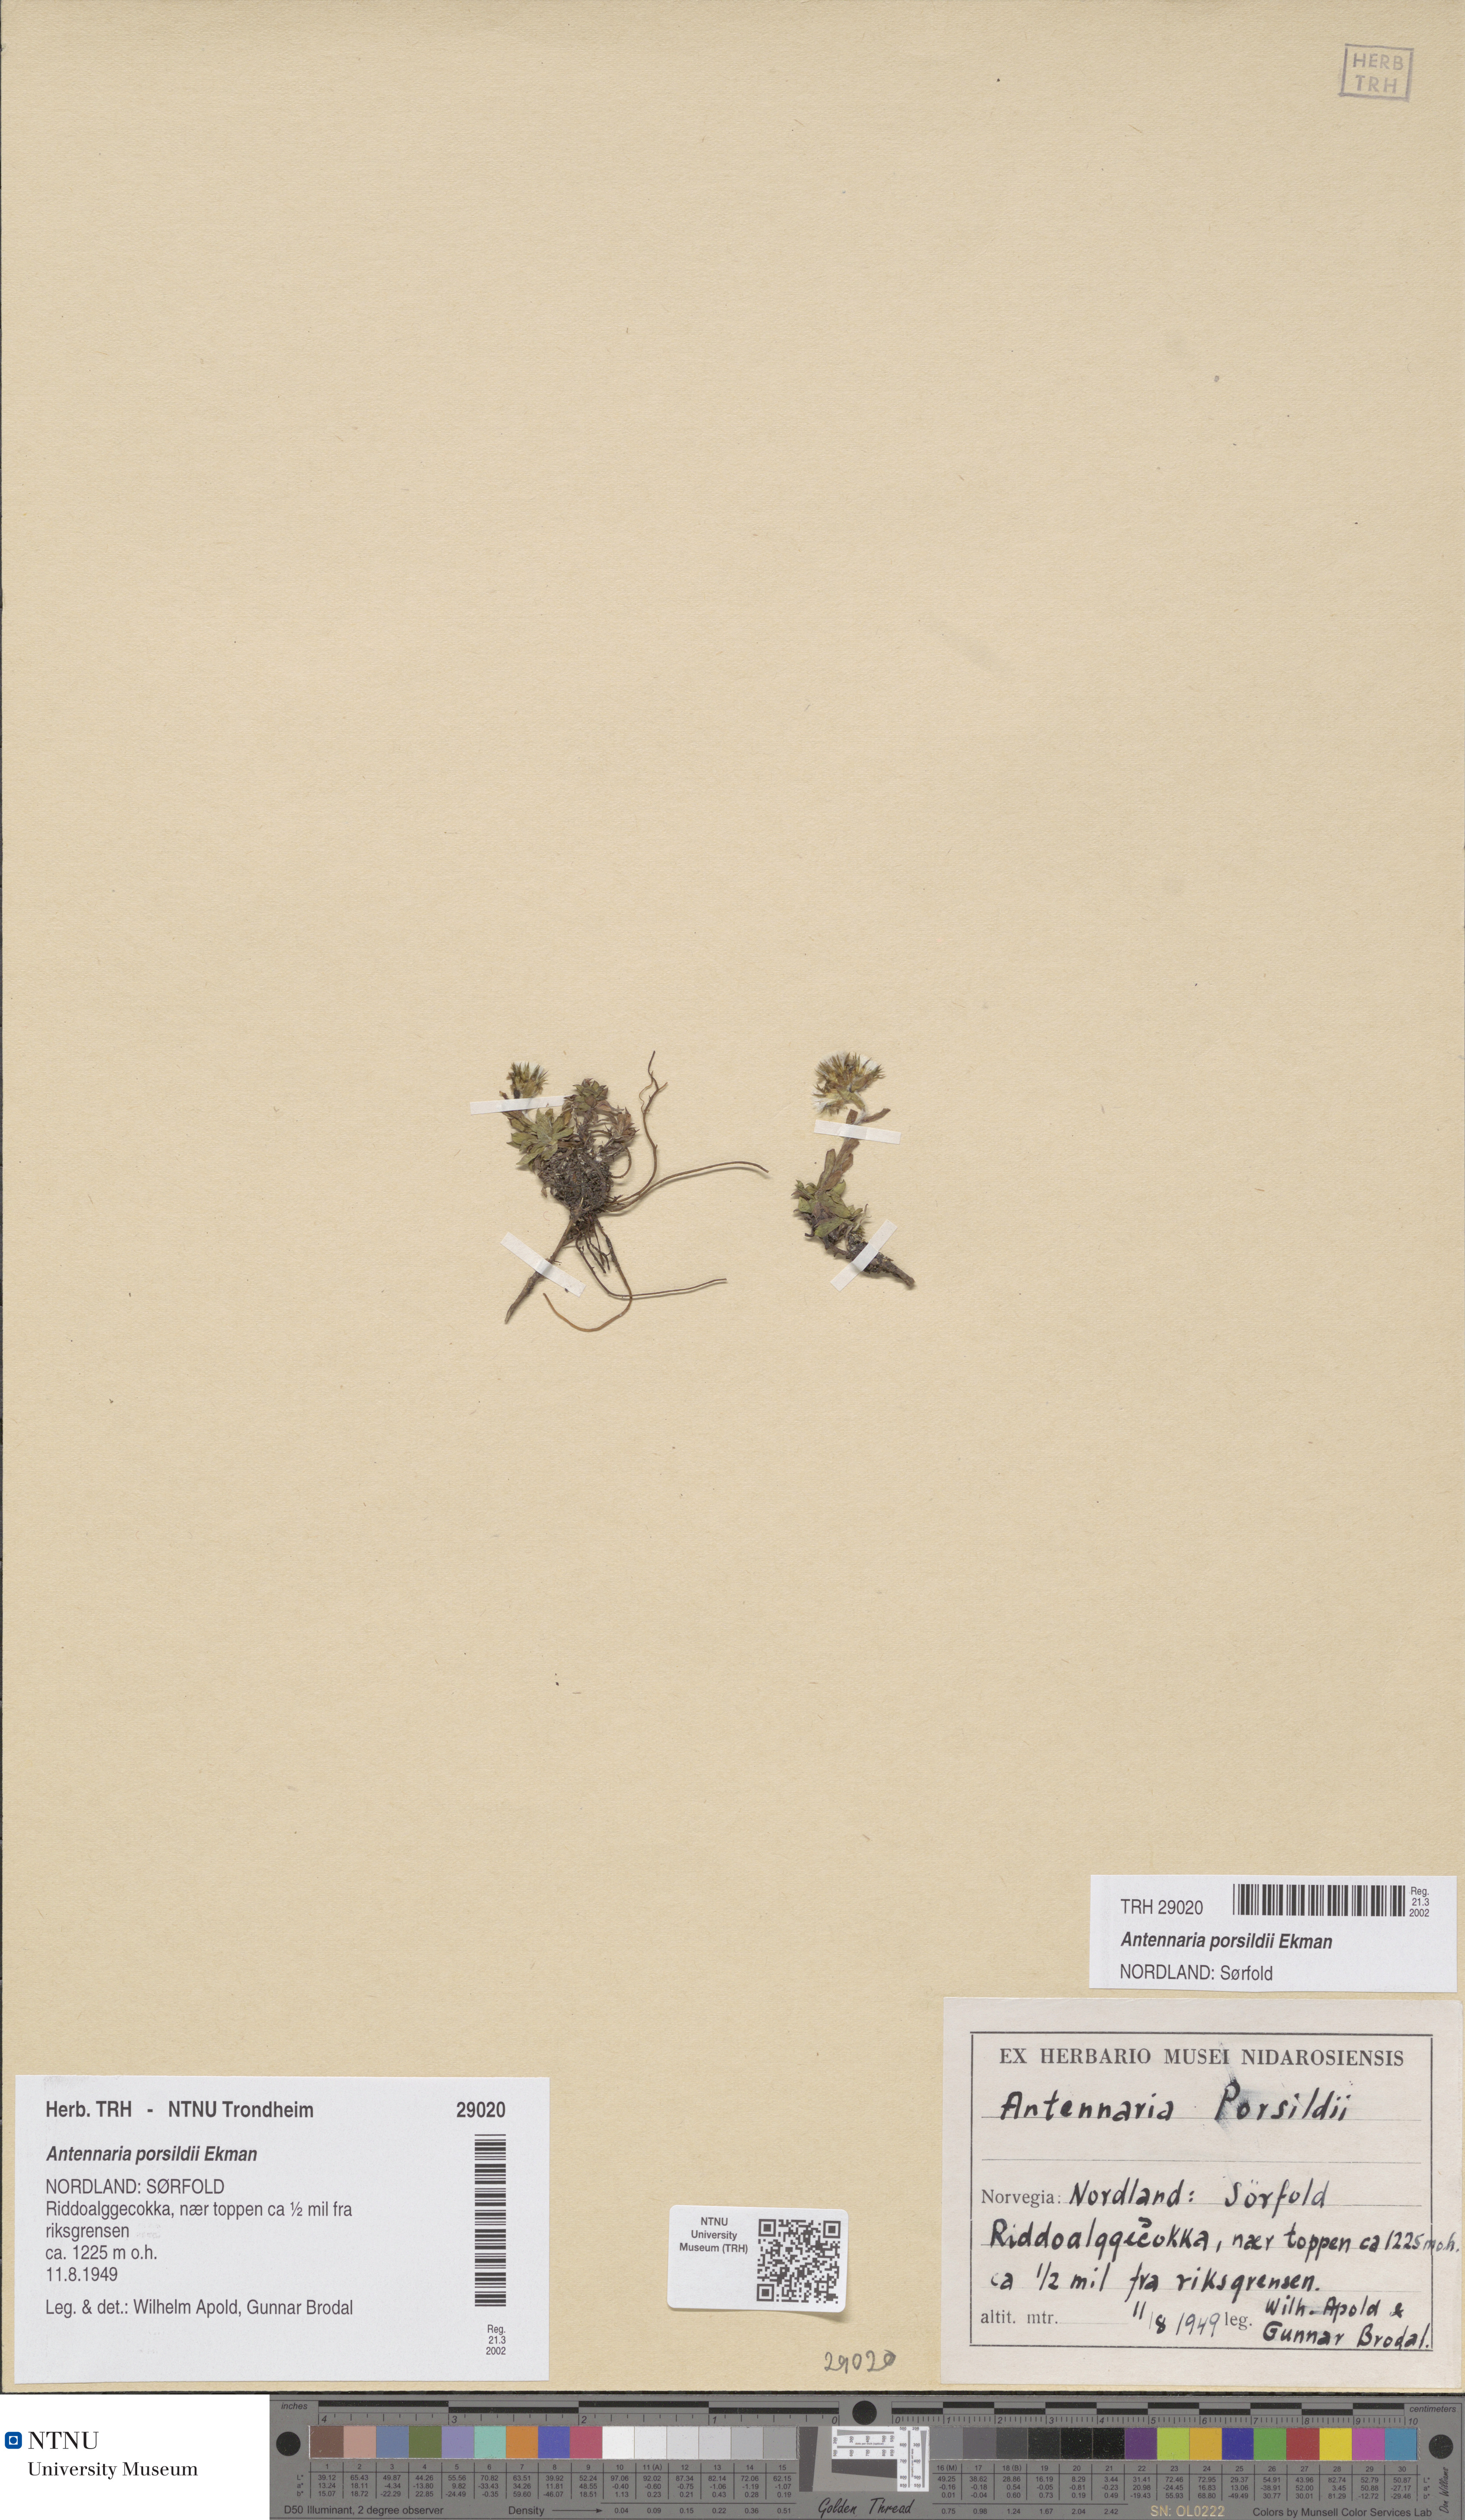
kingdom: Plantae
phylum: Tracheophyta
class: Magnoliopsida
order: Asterales
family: Asteraceae
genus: Antennaria
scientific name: Antennaria porsildii
